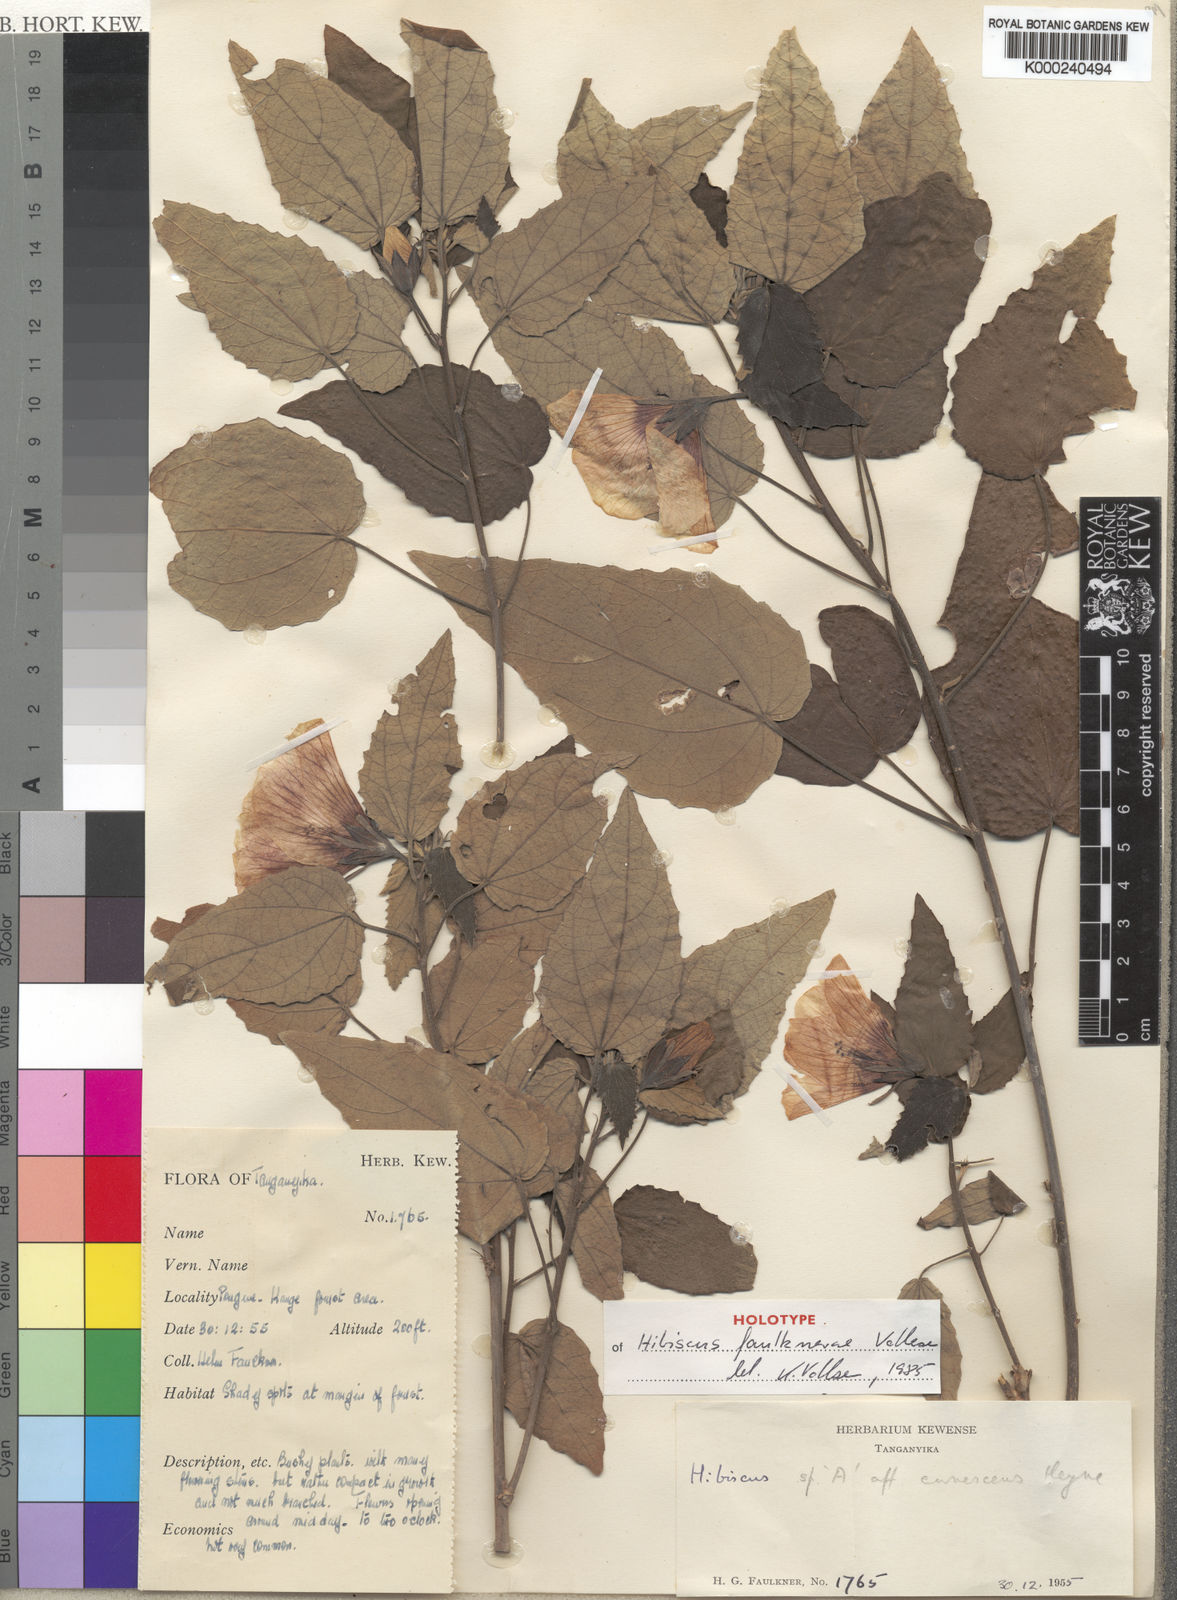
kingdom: Plantae
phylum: Tracheophyta
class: Magnoliopsida
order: Malvales
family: Malvaceae
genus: Hibiscus
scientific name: Hibiscus faulknerae
